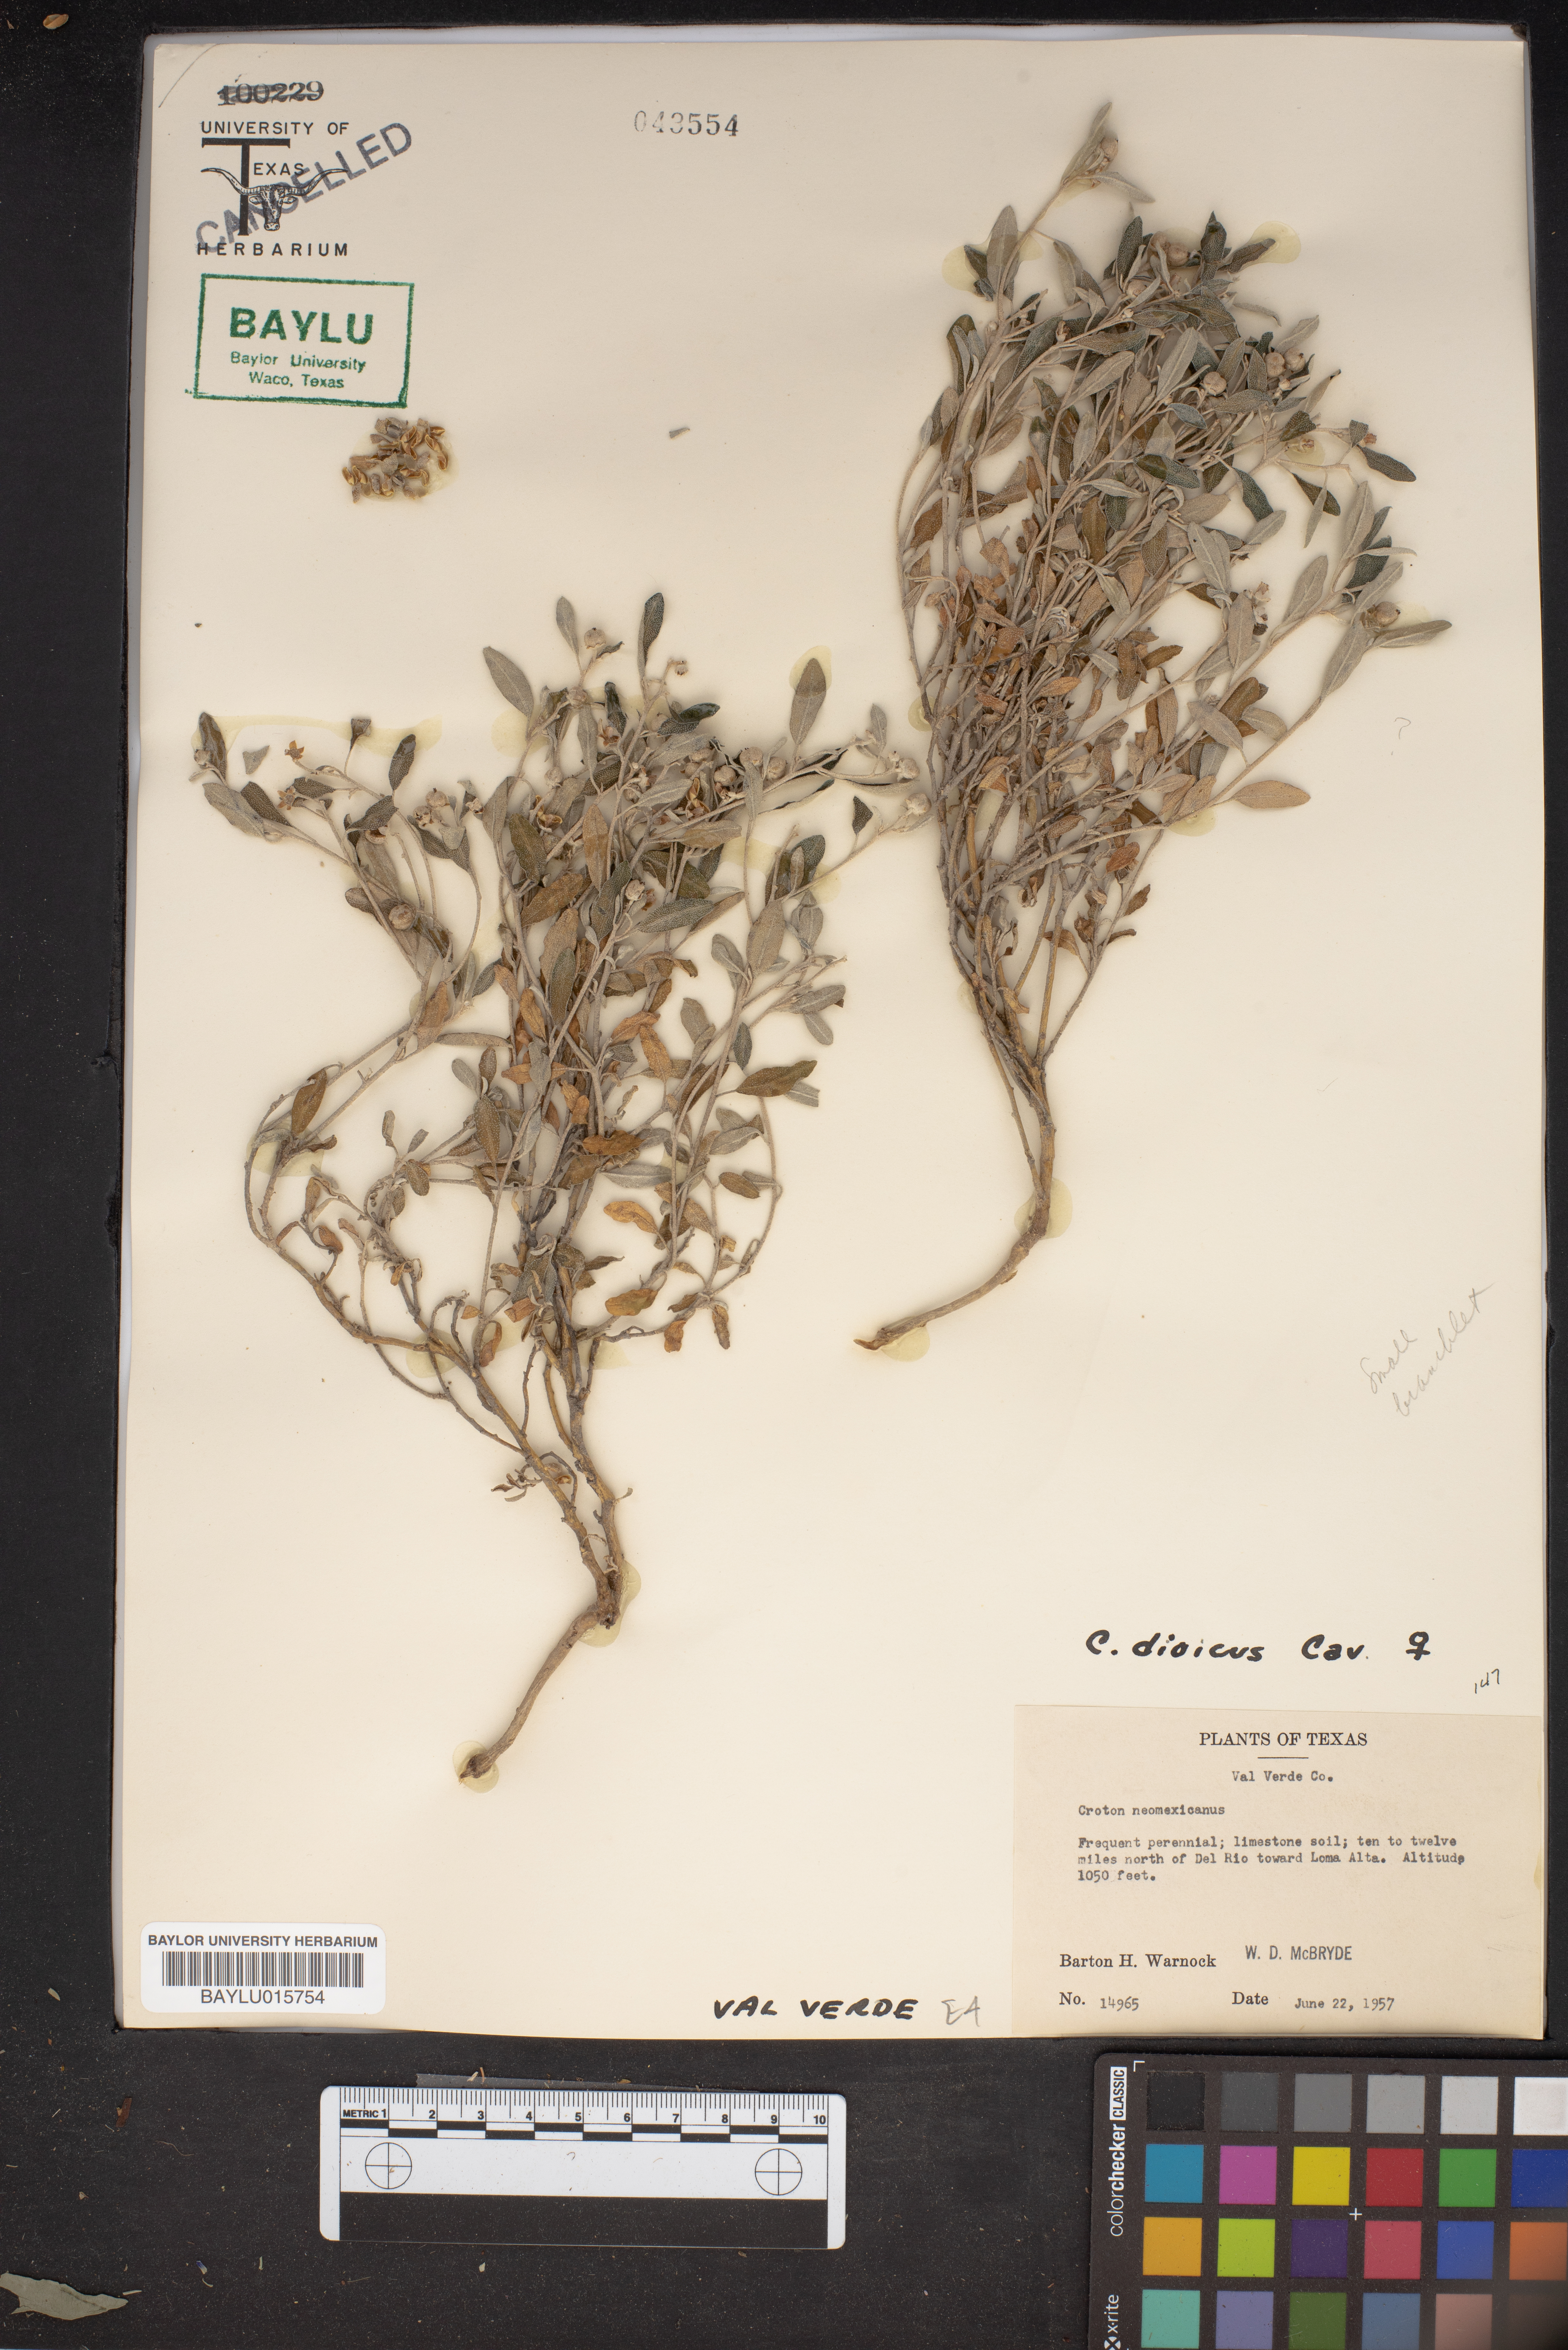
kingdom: Plantae
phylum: Tracheophyta
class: Magnoliopsida
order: Malpighiales
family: Euphorbiaceae
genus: Croton
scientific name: Croton dioicus
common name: Grassland croton
